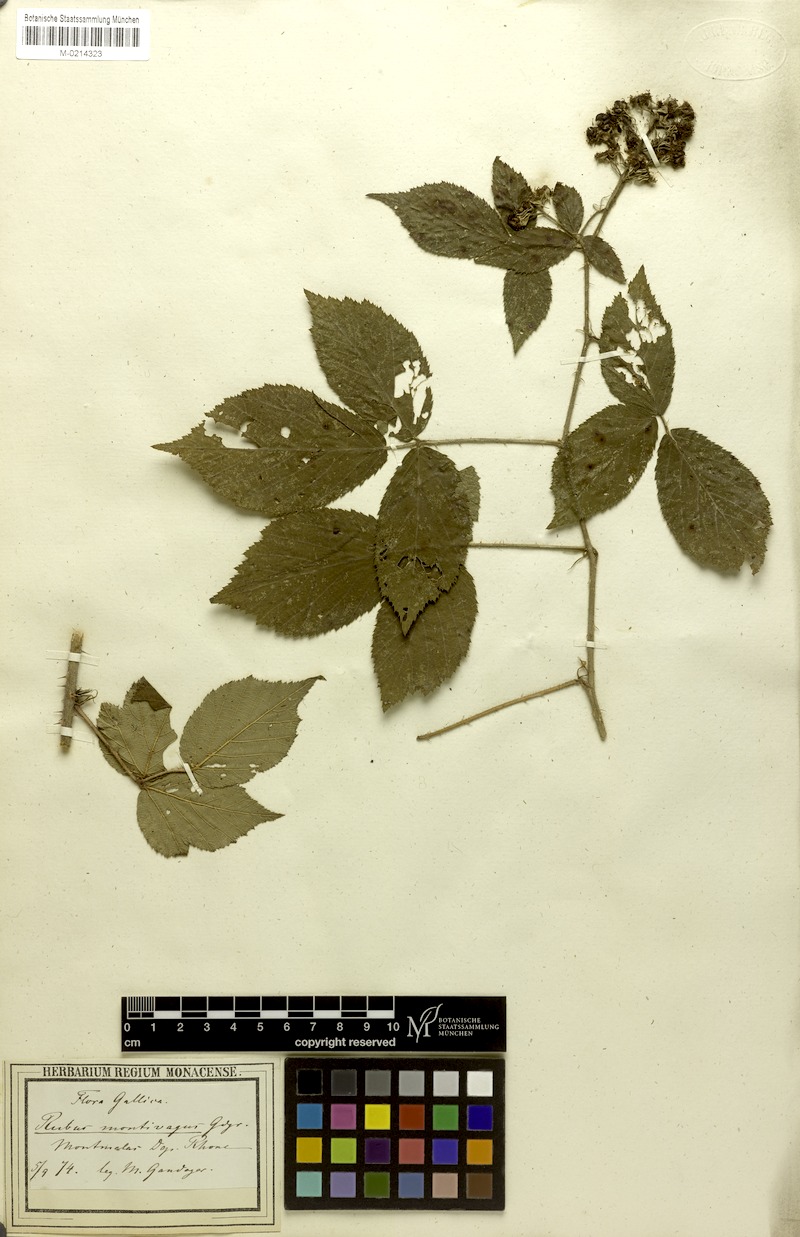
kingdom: Plantae
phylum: Tracheophyta
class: Magnoliopsida
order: Rosales
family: Rosaceae
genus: Rubus
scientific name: Rubus
